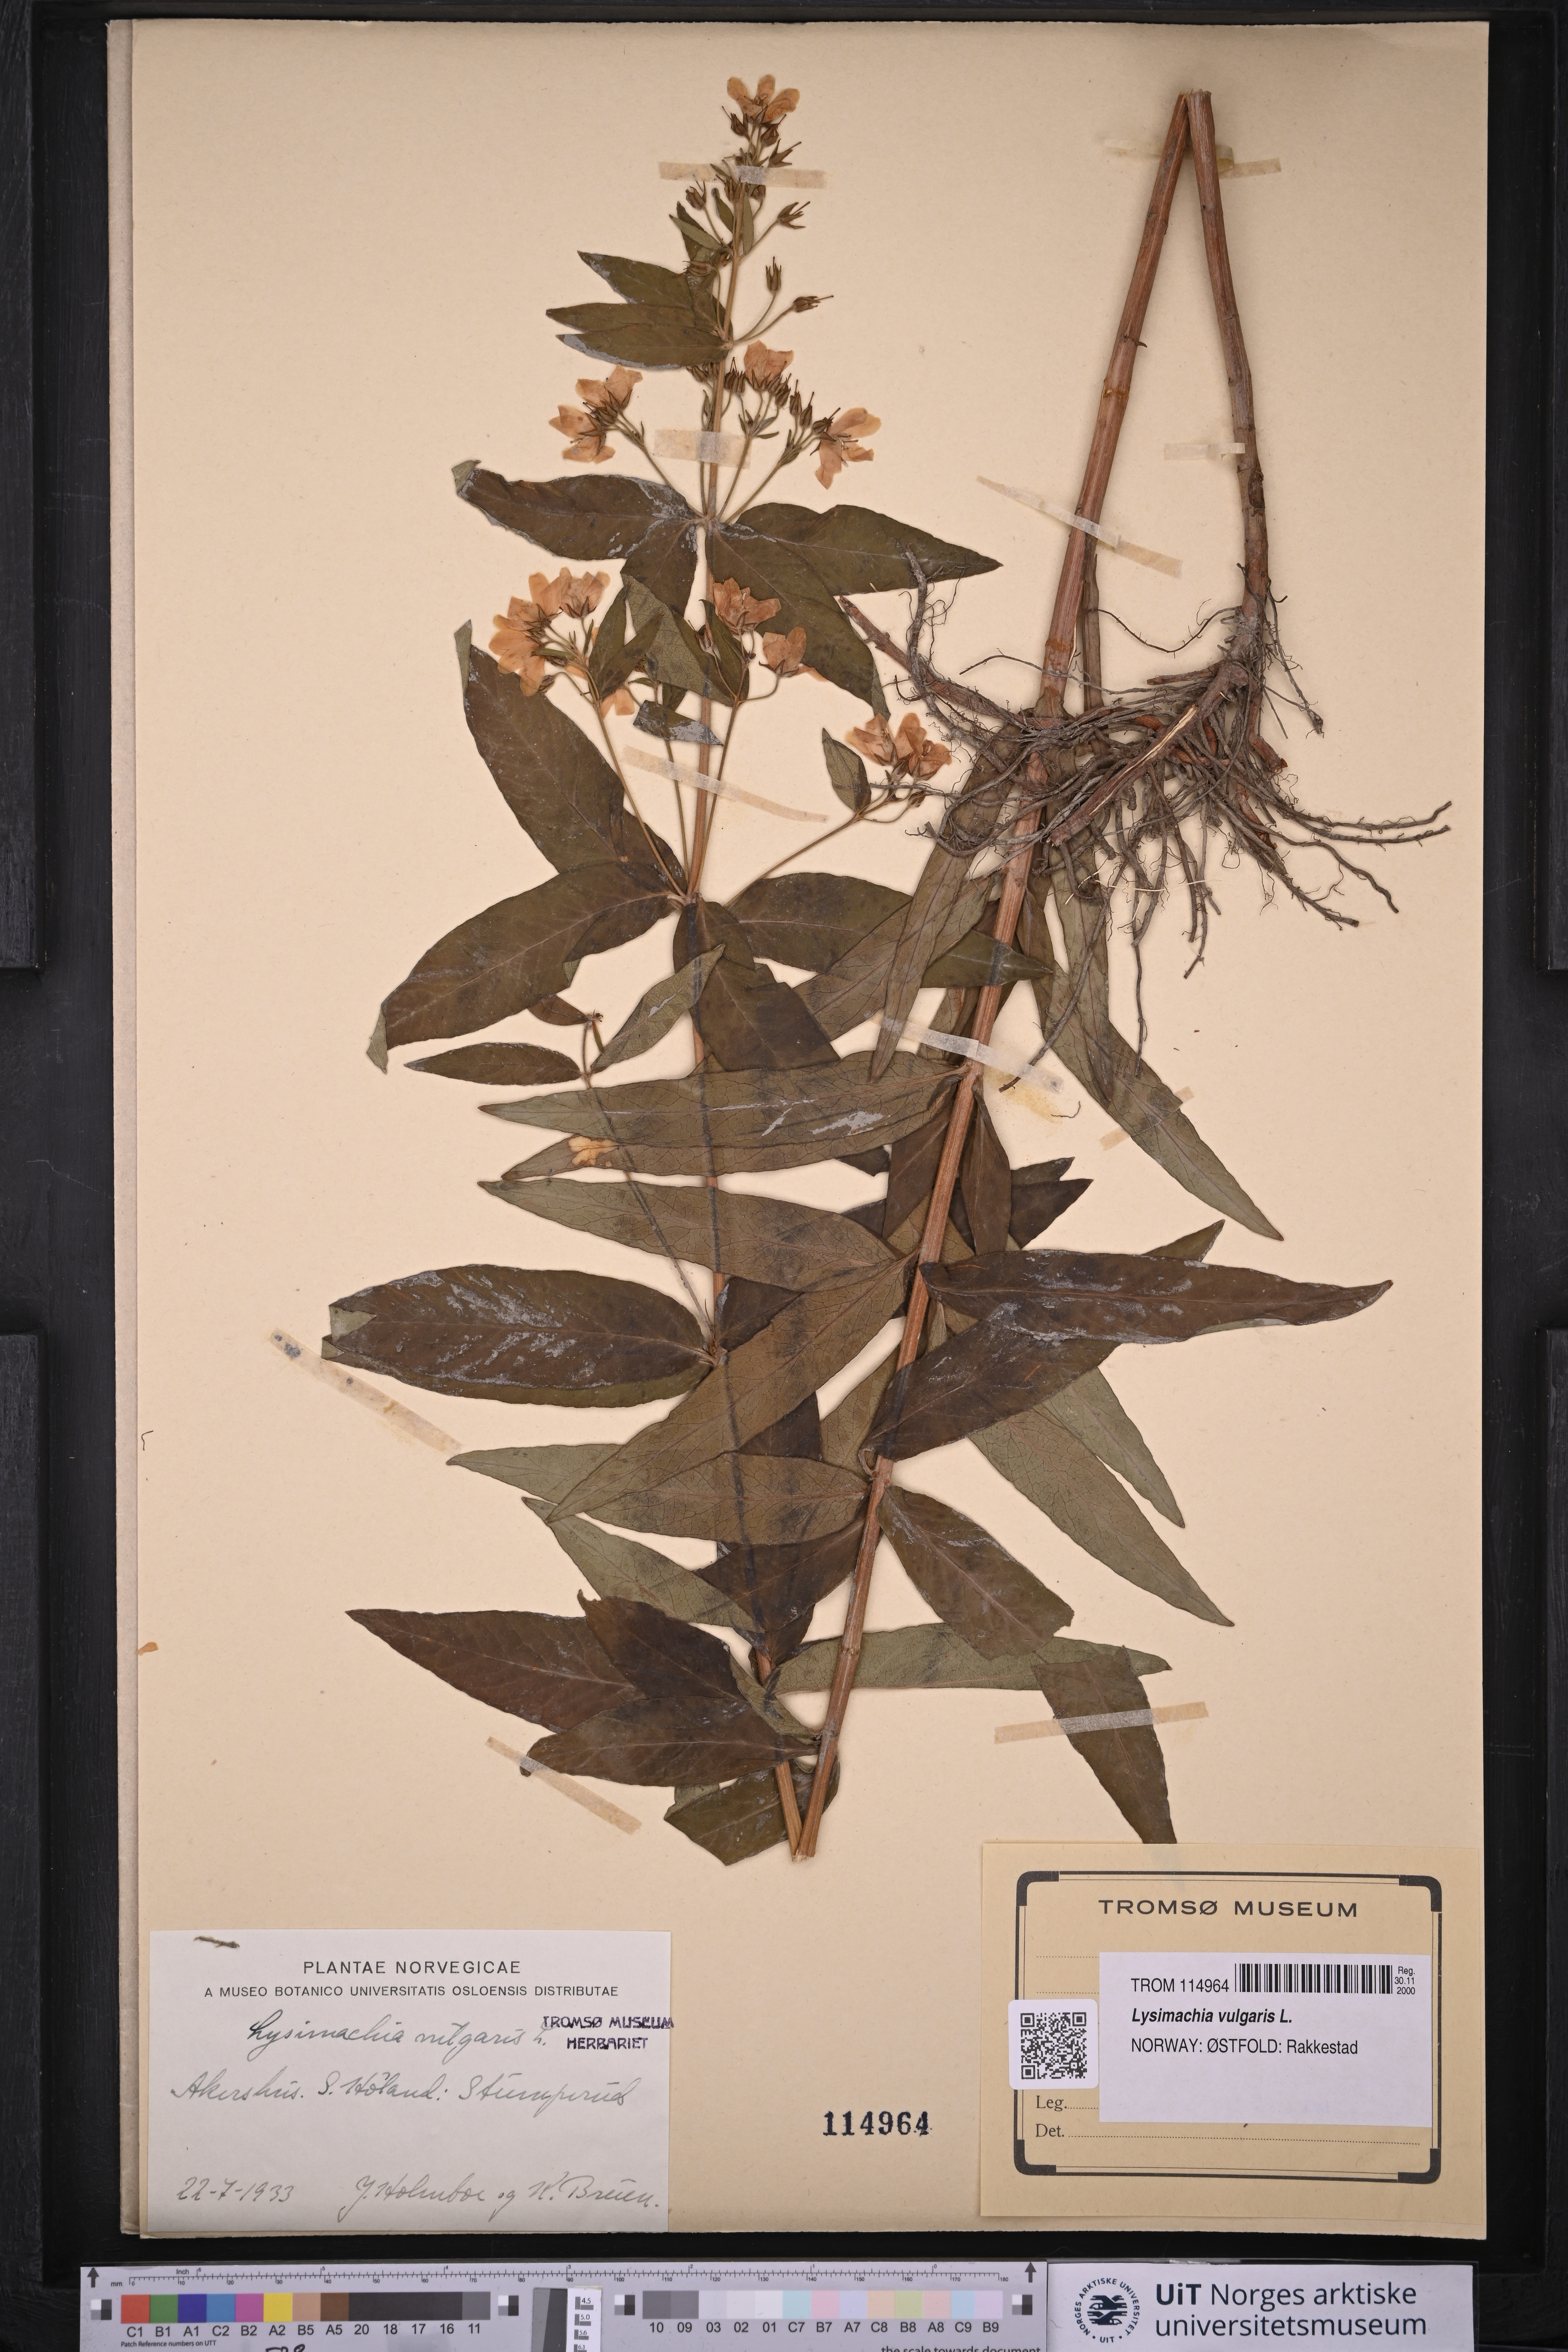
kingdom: Plantae
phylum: Tracheophyta
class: Magnoliopsida
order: Ericales
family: Primulaceae
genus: Lysimachia
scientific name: Lysimachia vulgaris
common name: Yellow loosestrife
